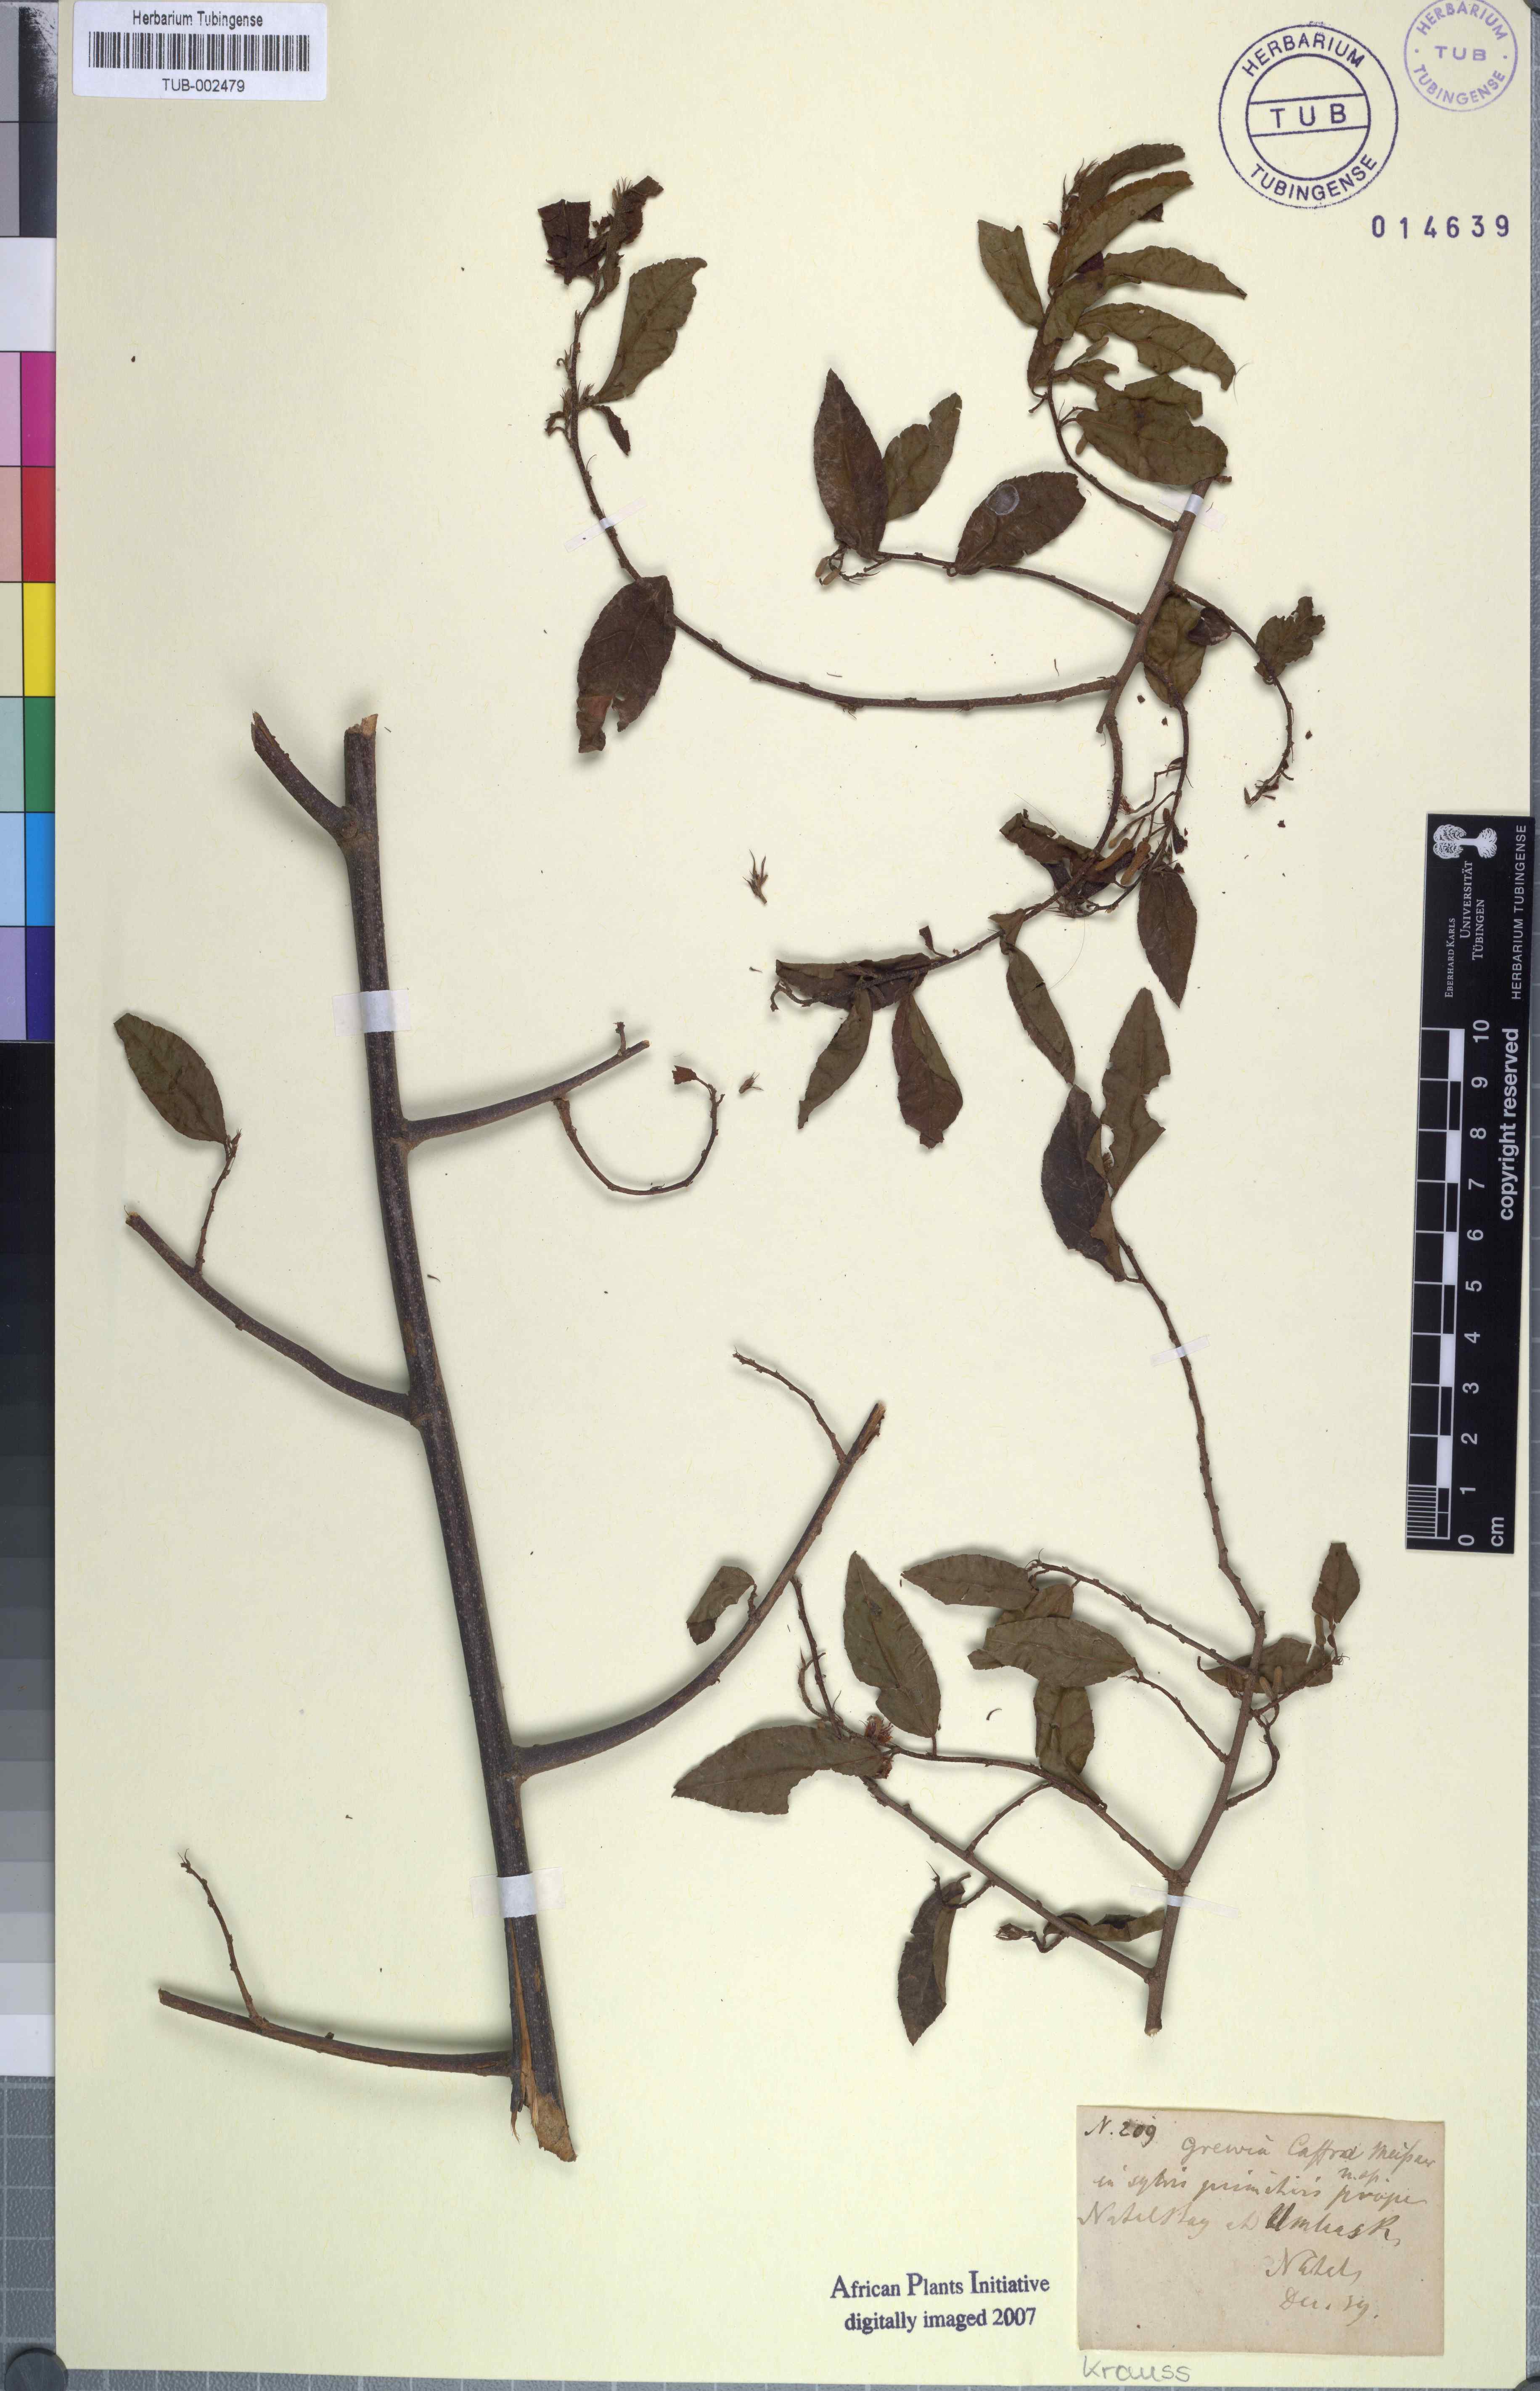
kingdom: Plantae
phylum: Tracheophyta
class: Magnoliopsida
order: Malvales
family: Malvaceae
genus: Grewia
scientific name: Grewia caffra
